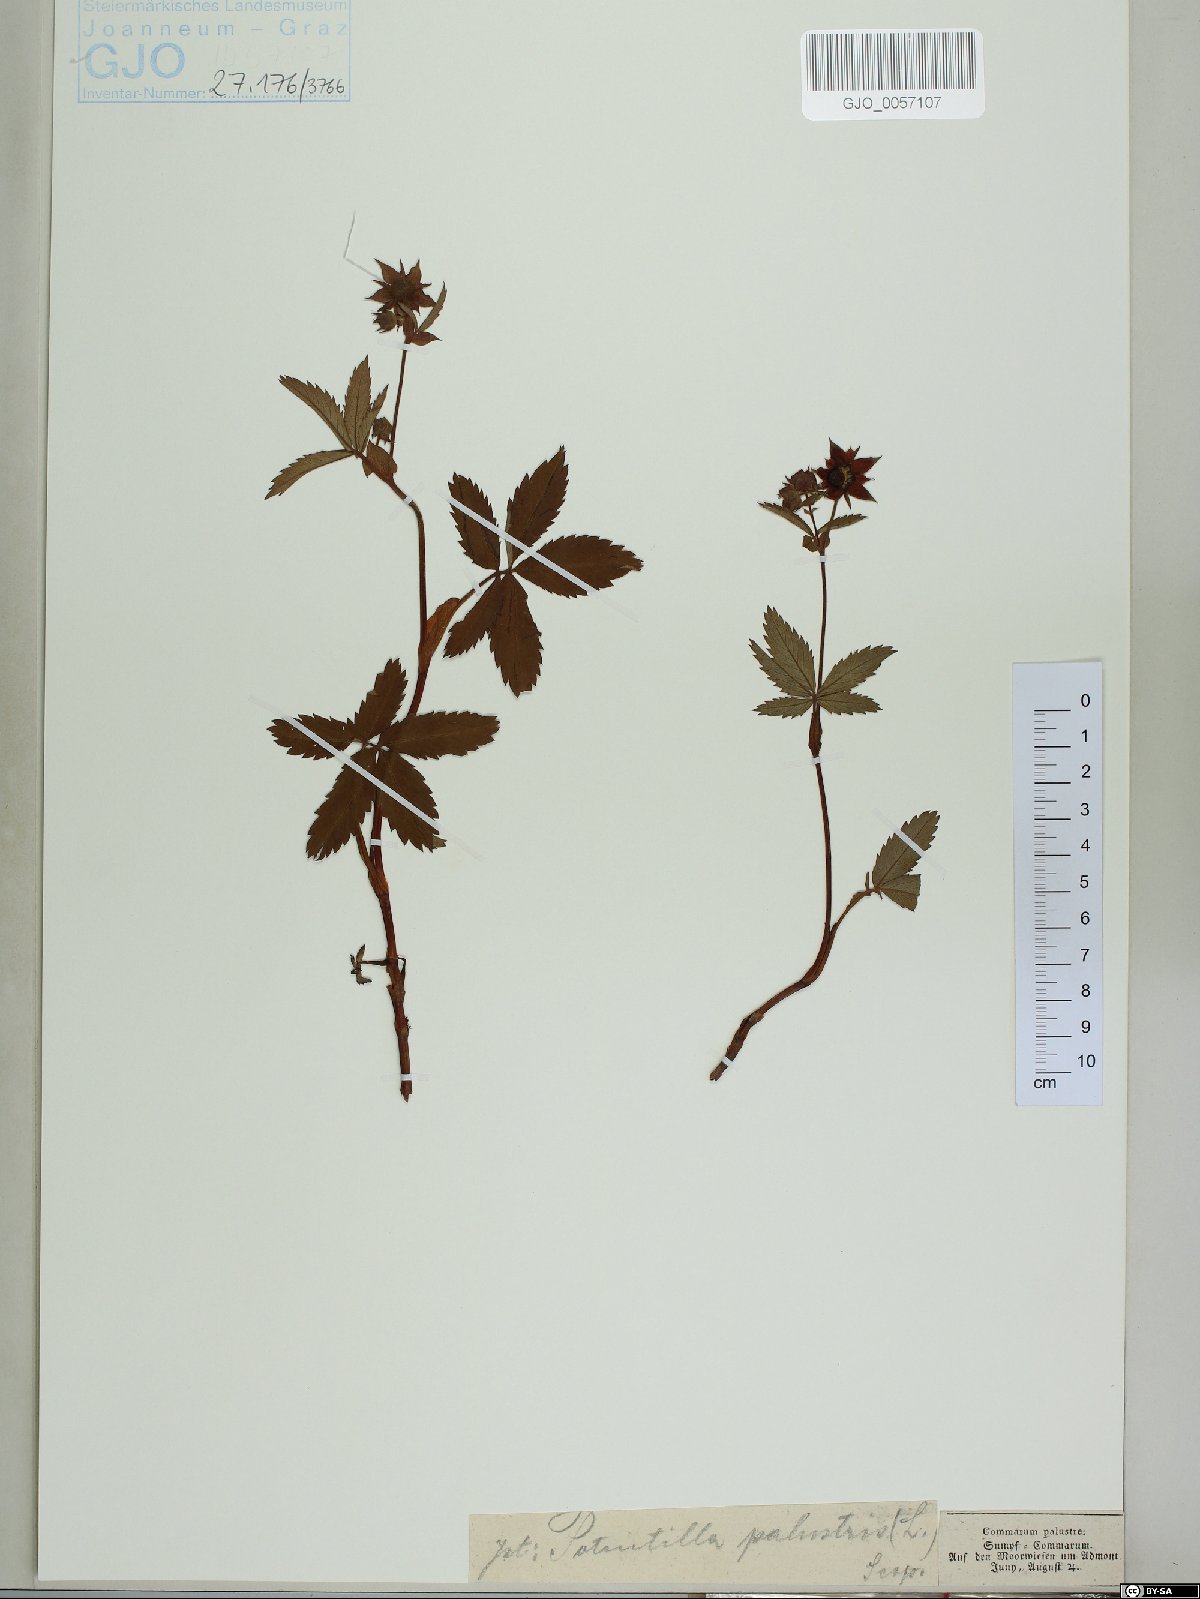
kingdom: Plantae
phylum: Tracheophyta
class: Magnoliopsida
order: Rosales
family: Rosaceae
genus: Comarum
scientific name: Comarum palustre
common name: Marsh cinquefoil
